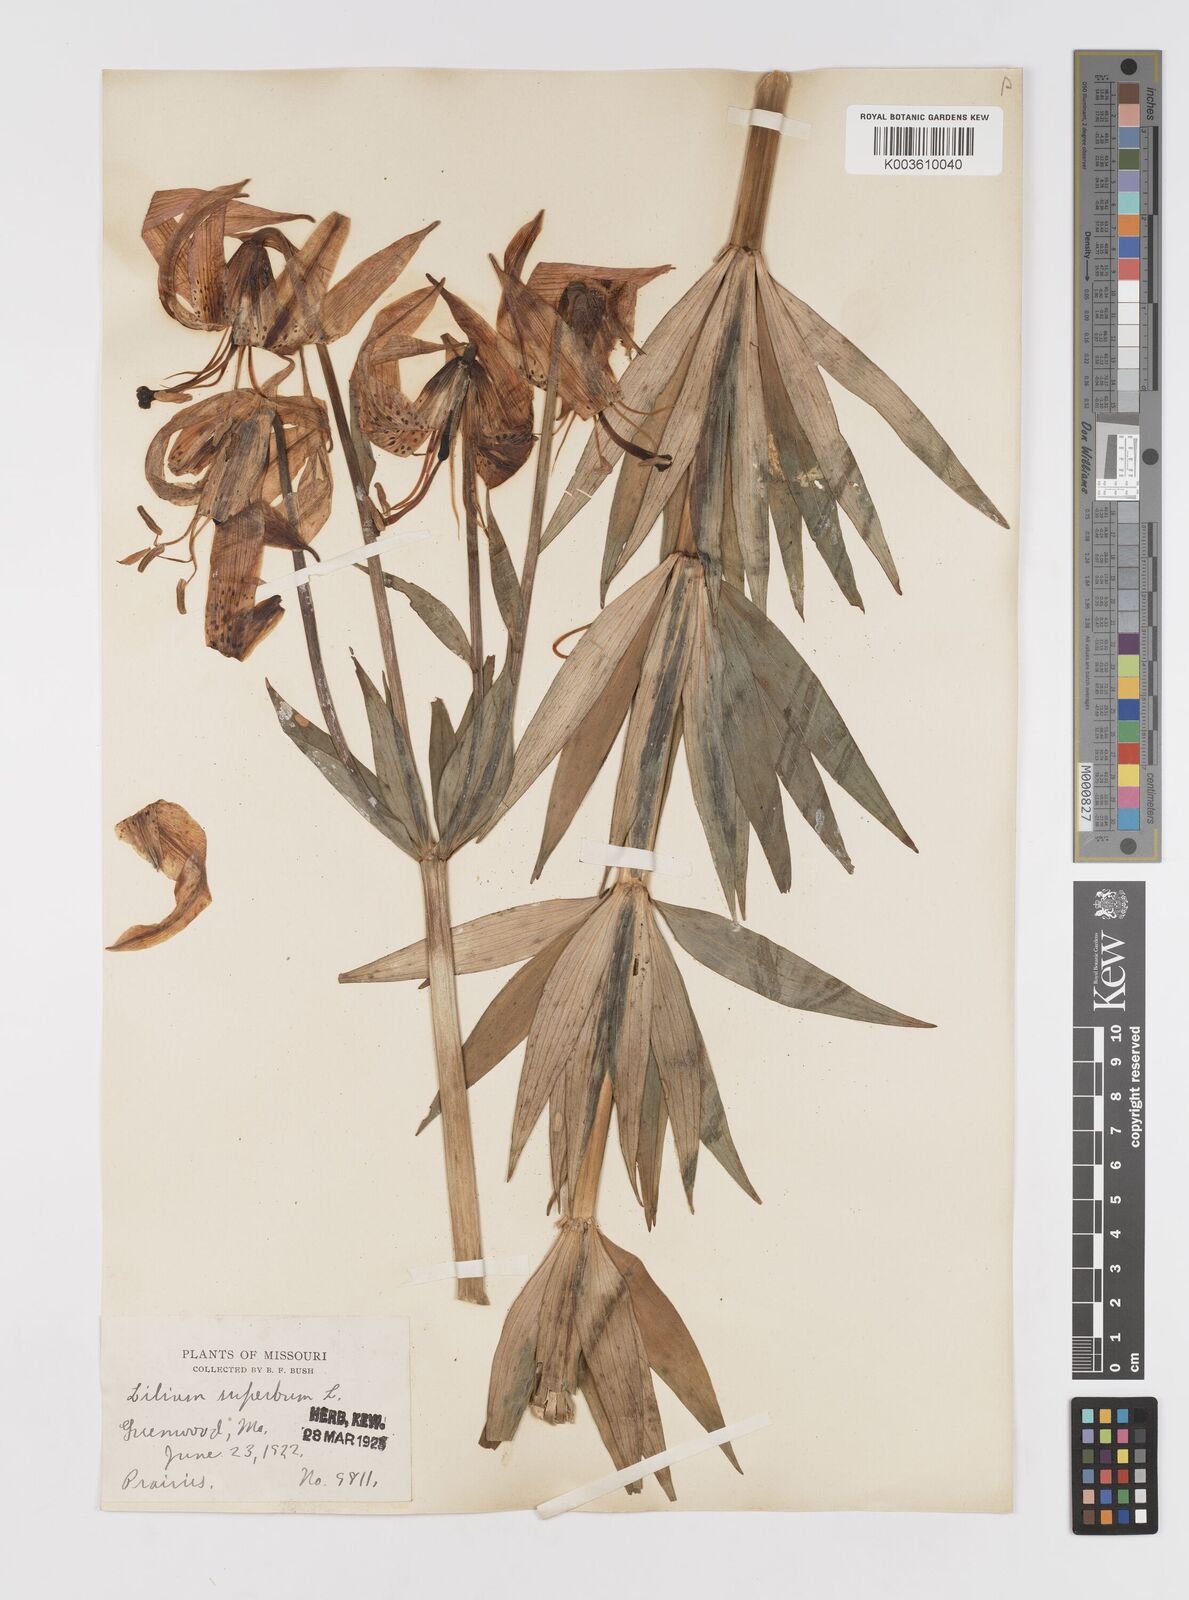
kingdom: Plantae
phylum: Tracheophyta
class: Liliopsida
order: Liliales
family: Liliaceae
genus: Lilium
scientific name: Lilium superbum
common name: American turk's-cap lily
